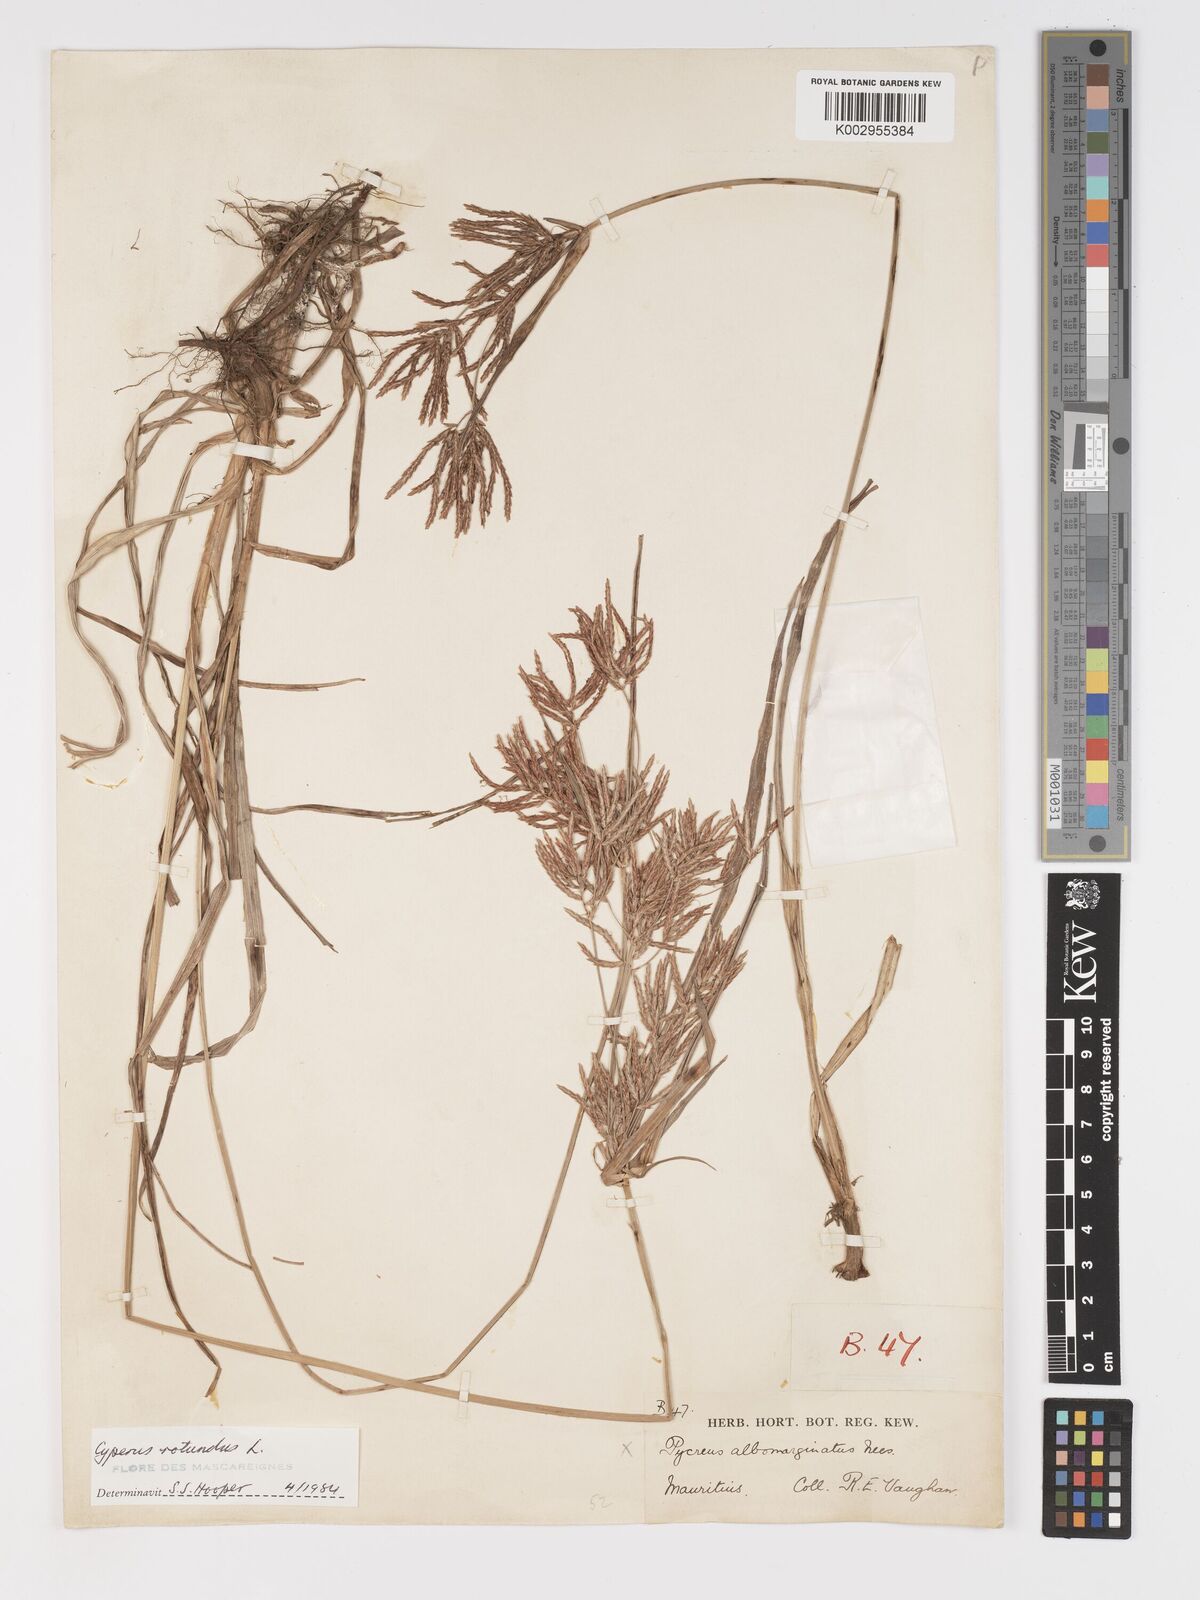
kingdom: Plantae
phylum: Tracheophyta
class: Liliopsida
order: Poales
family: Cyperaceae
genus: Cyperus
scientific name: Cyperus tuberosus
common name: Nut grass
